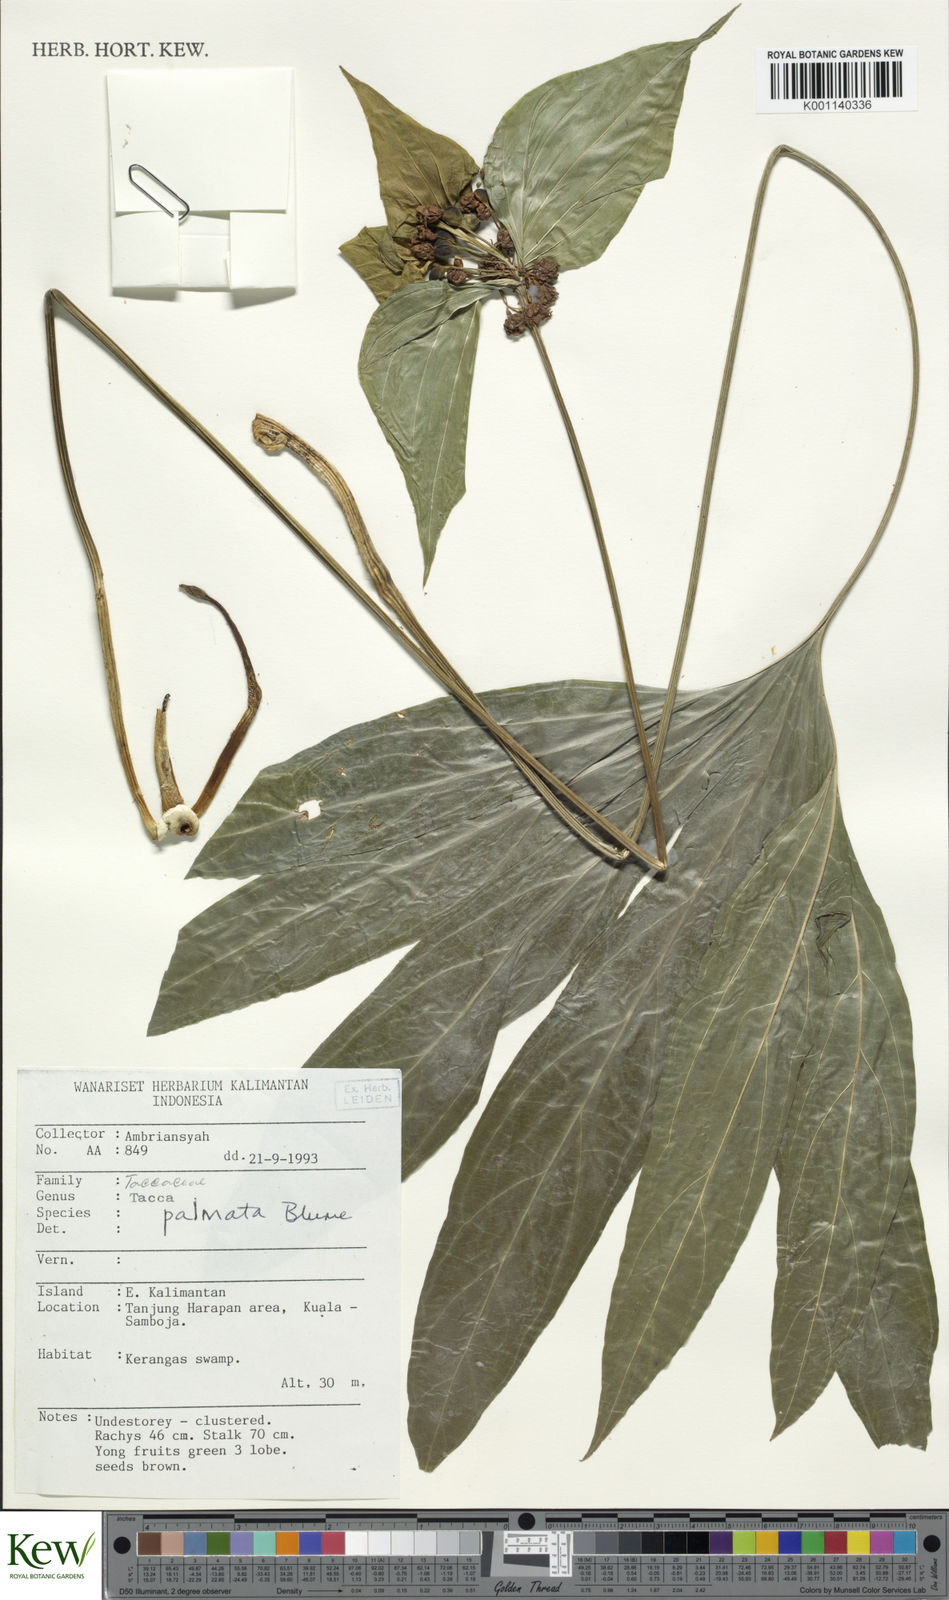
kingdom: Plantae
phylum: Tracheophyta
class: Liliopsida
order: Dioscoreales
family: Dioscoreaceae
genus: Tacca
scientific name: Tacca palmata
